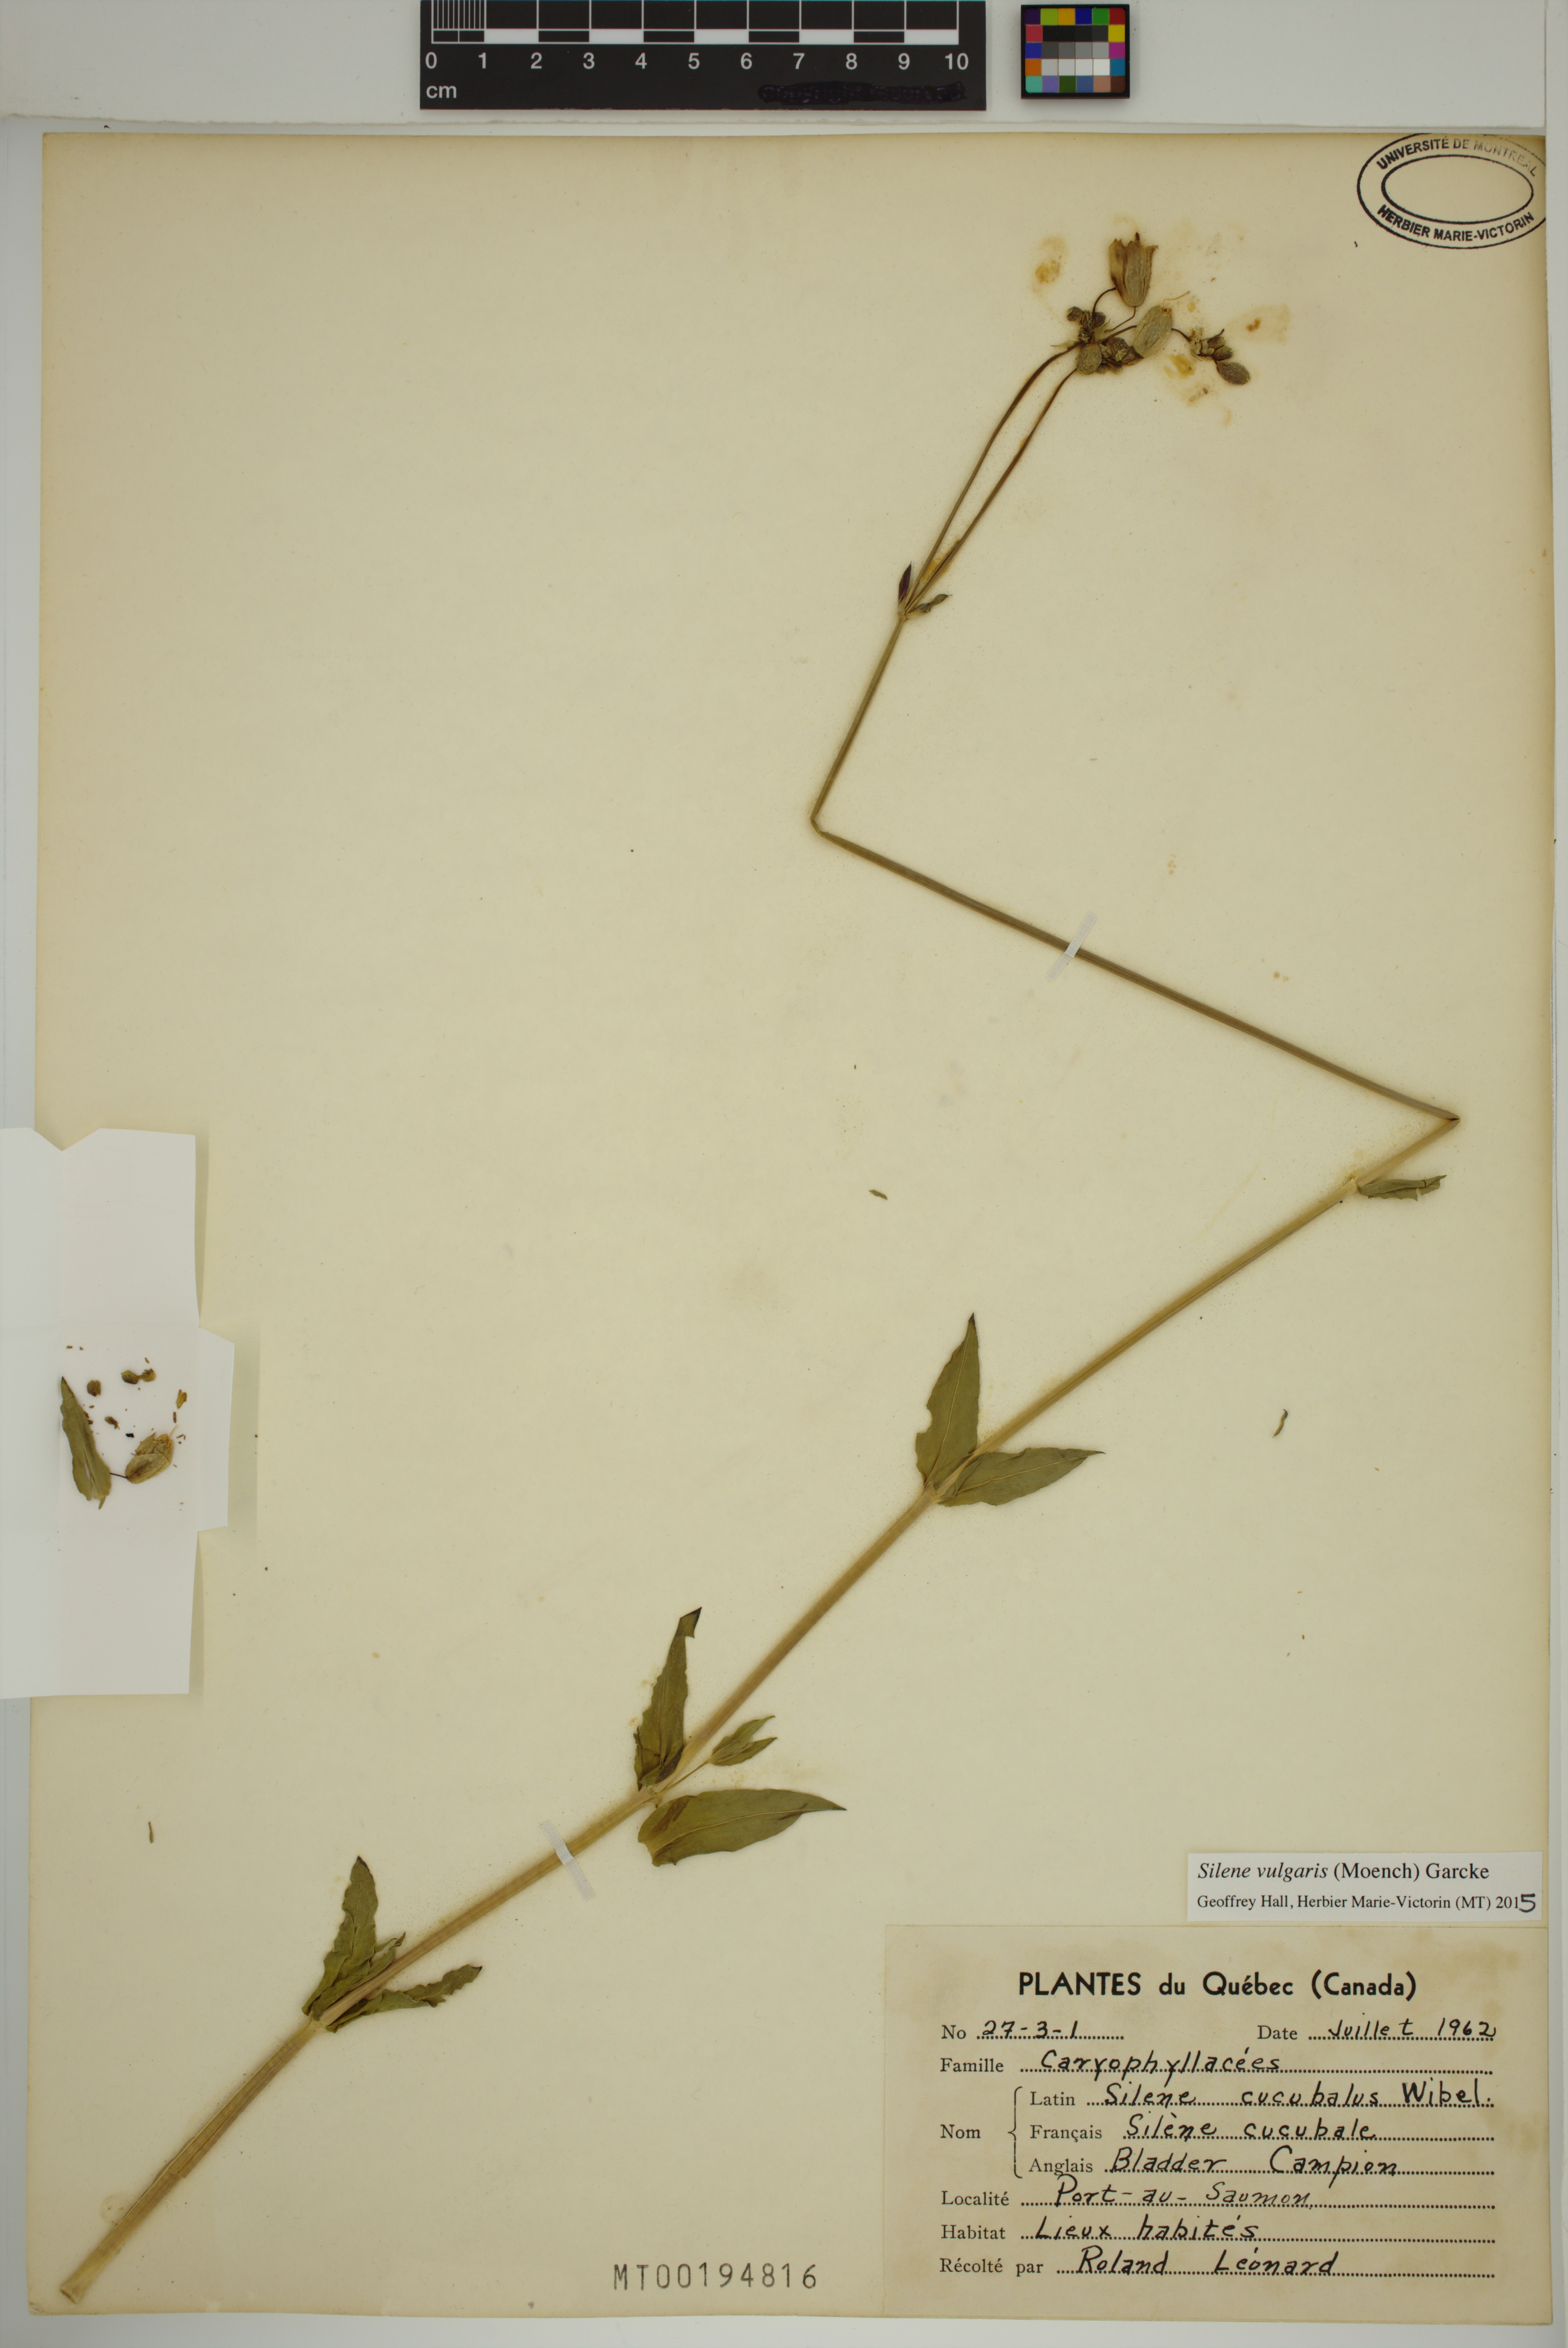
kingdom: Plantae
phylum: Tracheophyta
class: Magnoliopsida
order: Caryophyllales
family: Caryophyllaceae
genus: Silene
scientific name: Silene vulgaris
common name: Bladder campion
